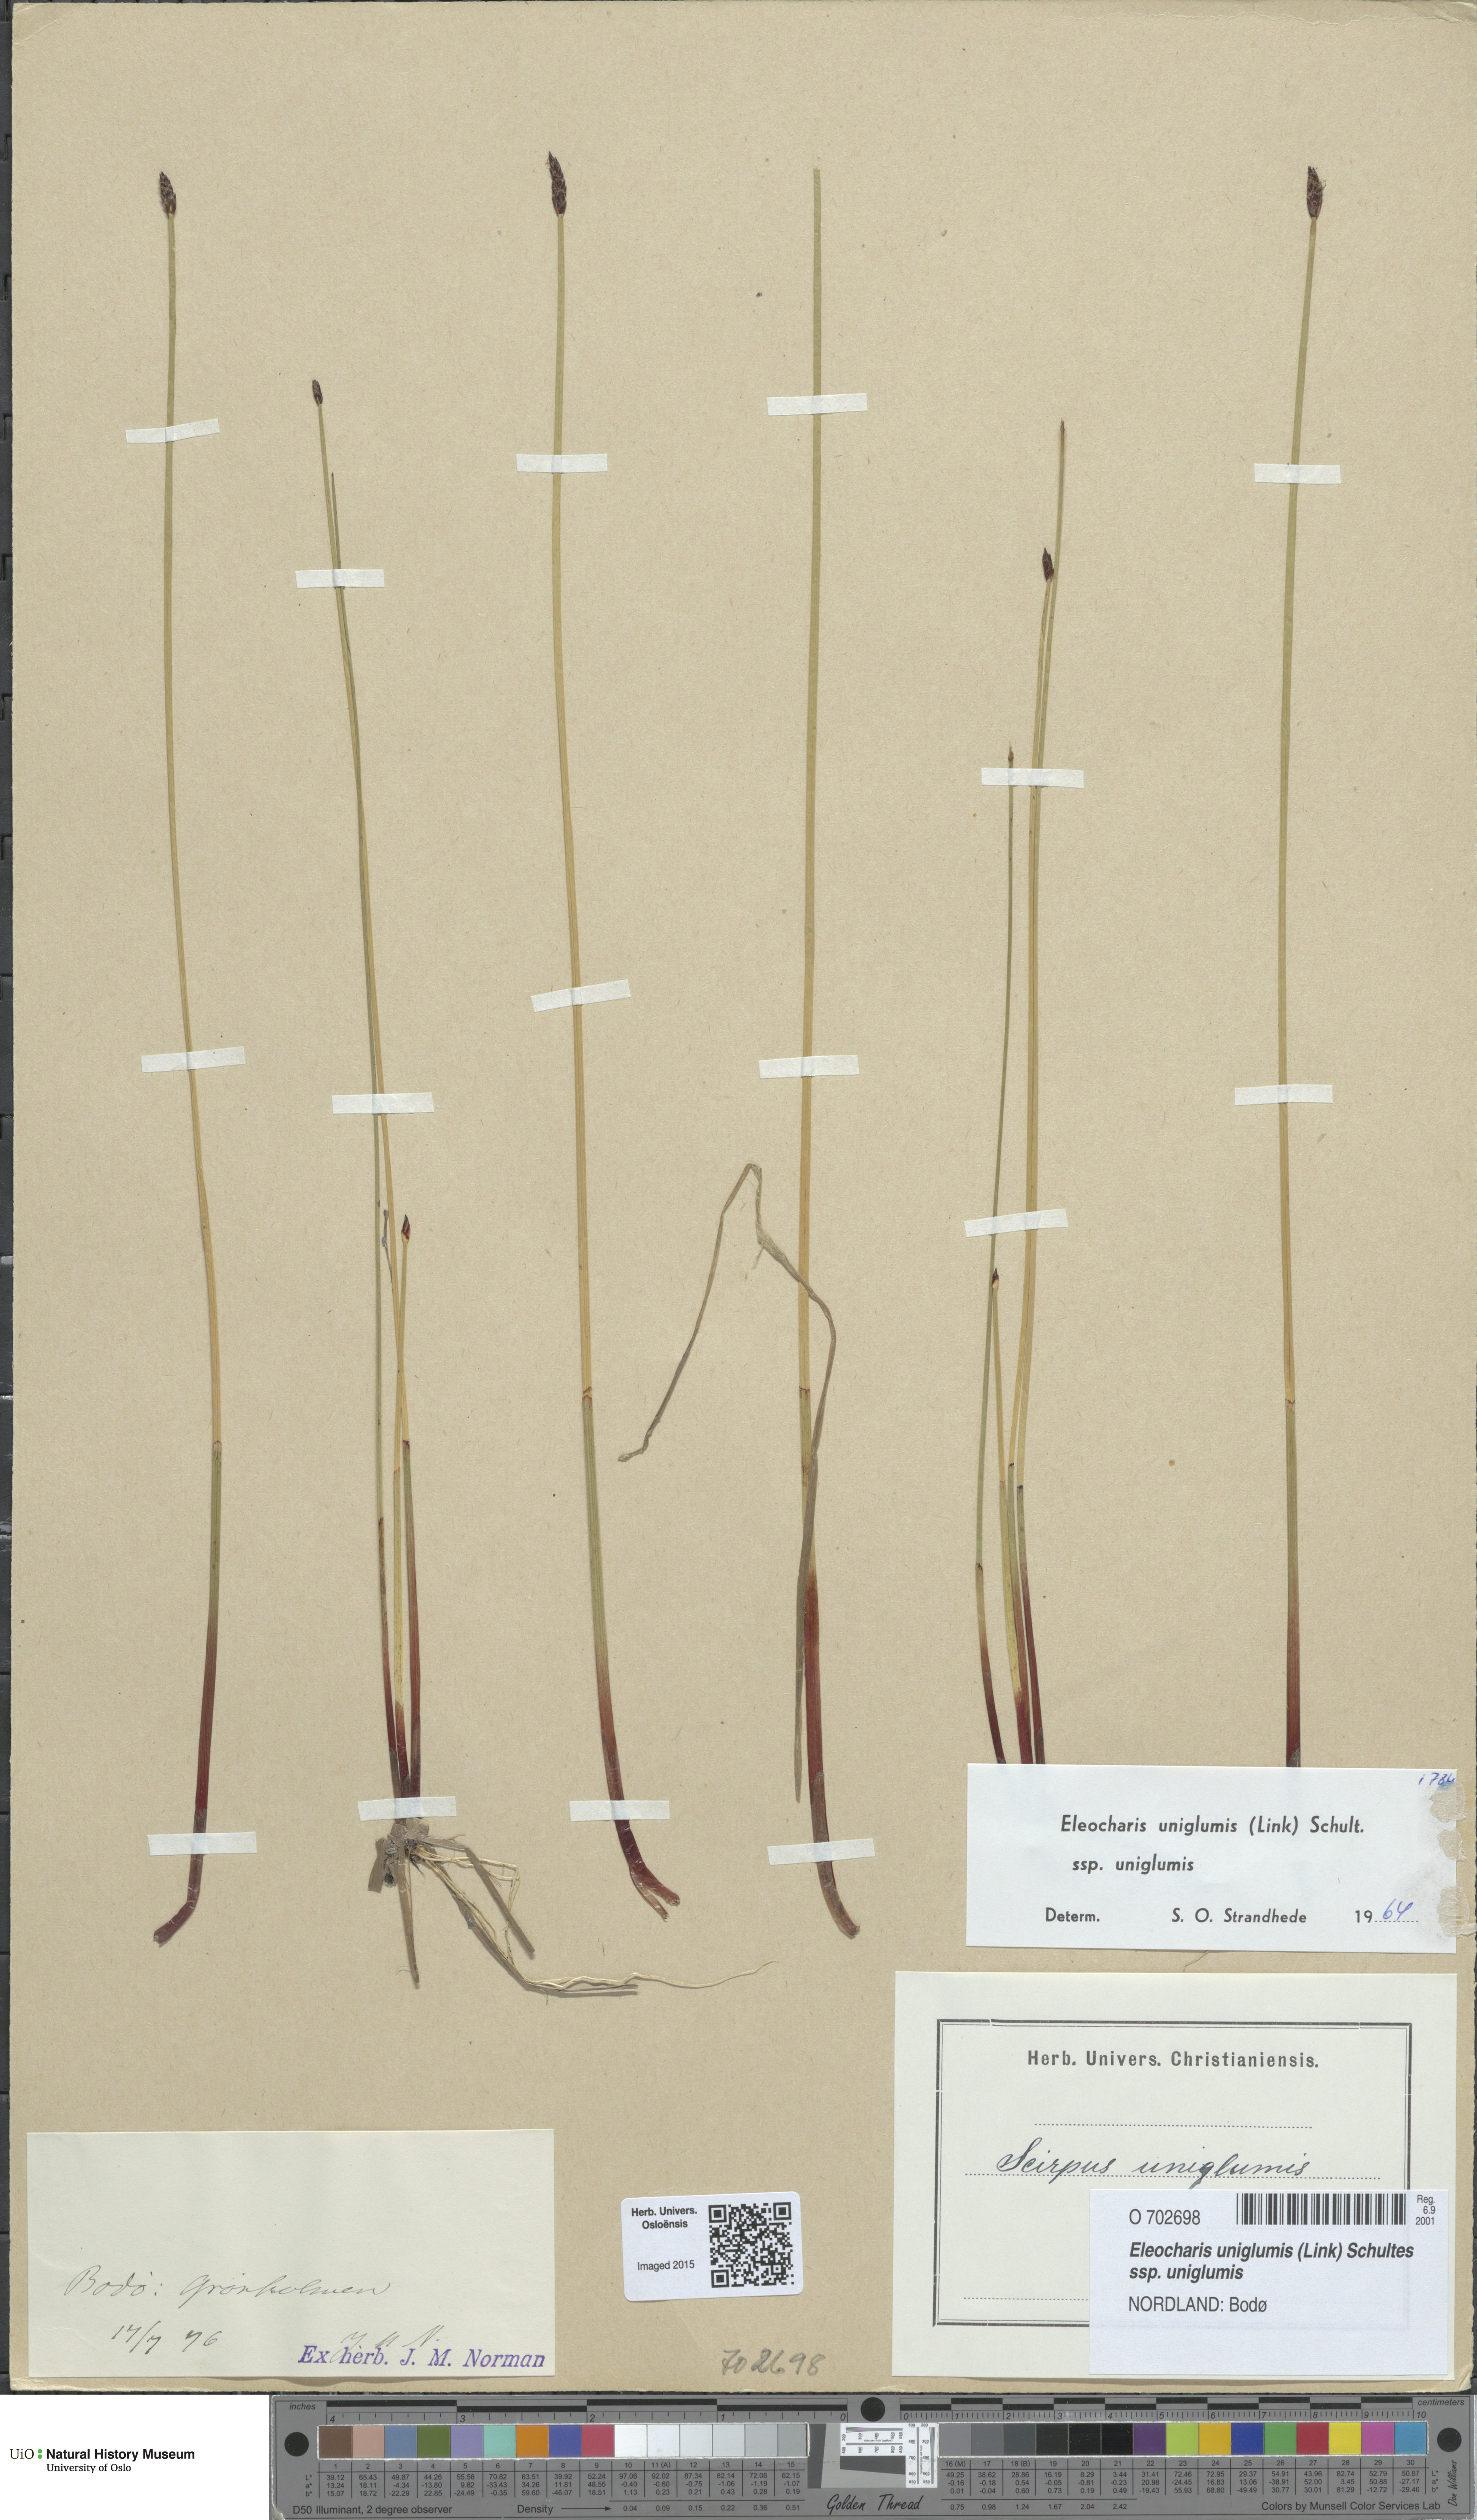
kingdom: Plantae
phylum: Tracheophyta
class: Liliopsida
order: Poales
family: Cyperaceae
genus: Eleocharis
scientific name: Eleocharis uniglumis
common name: Slender spike-rush
